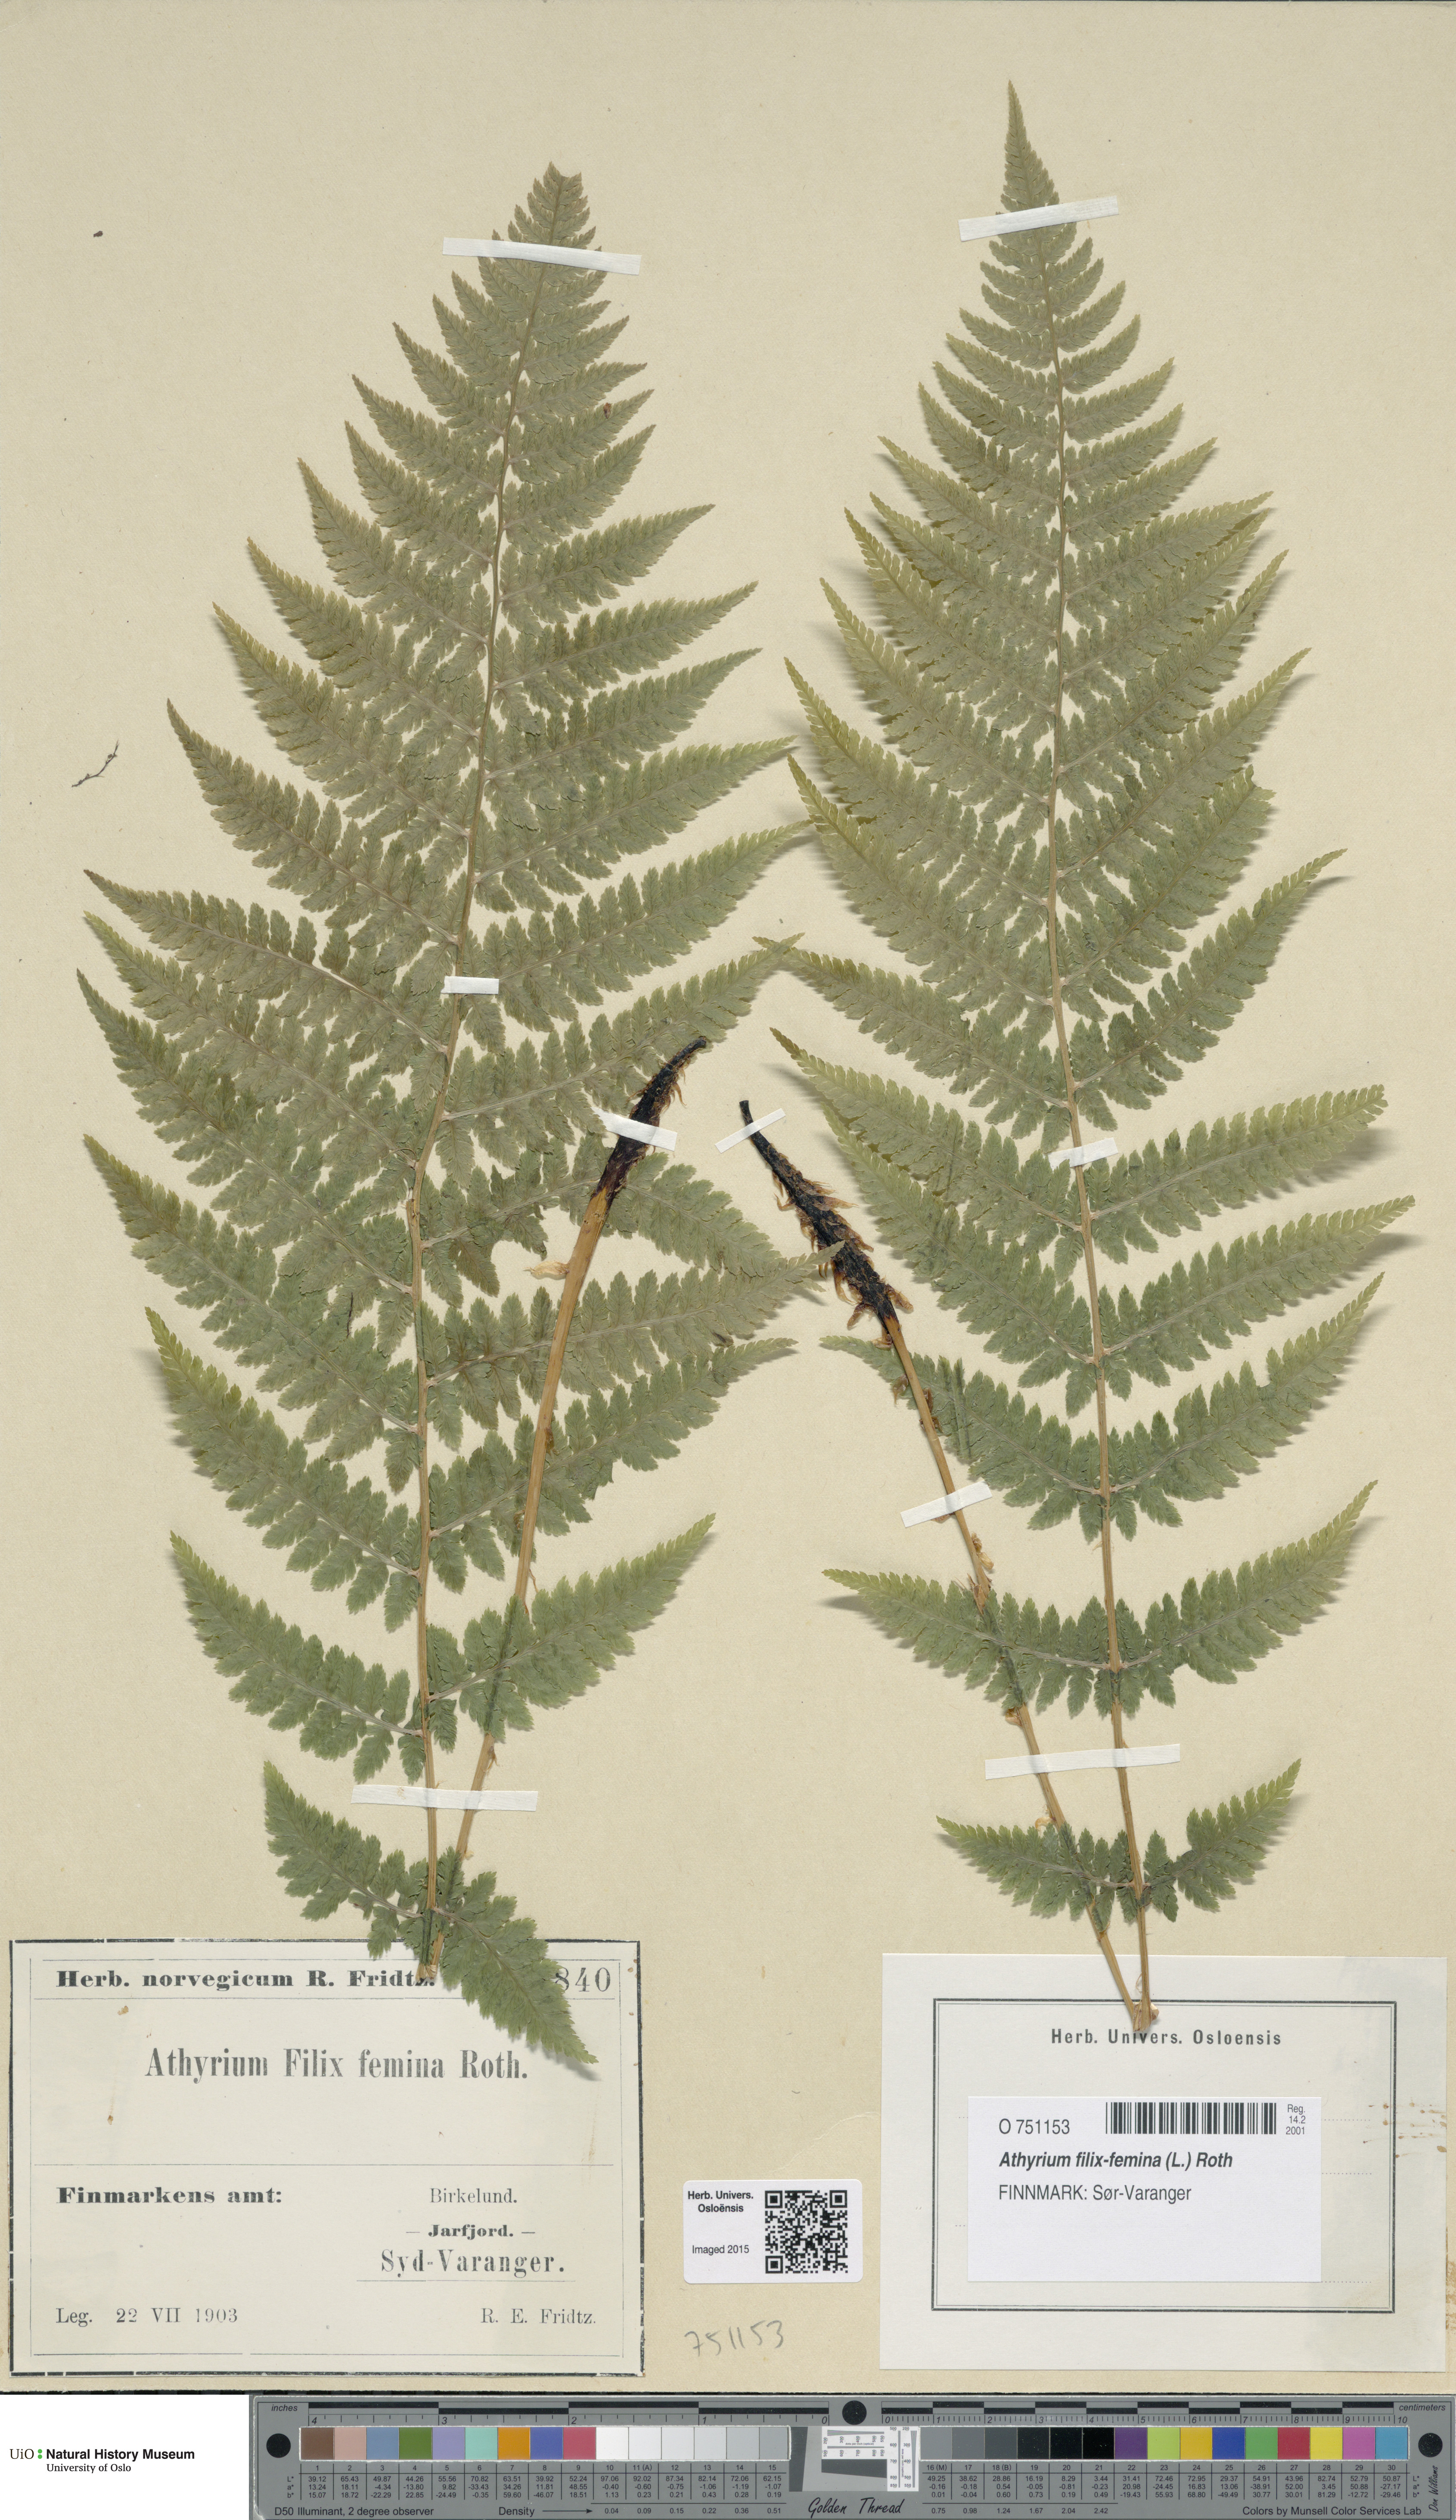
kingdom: Plantae
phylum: Tracheophyta
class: Polypodiopsida
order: Polypodiales
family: Athyriaceae
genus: Athyrium
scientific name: Athyrium filix-femina
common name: Lady fern
